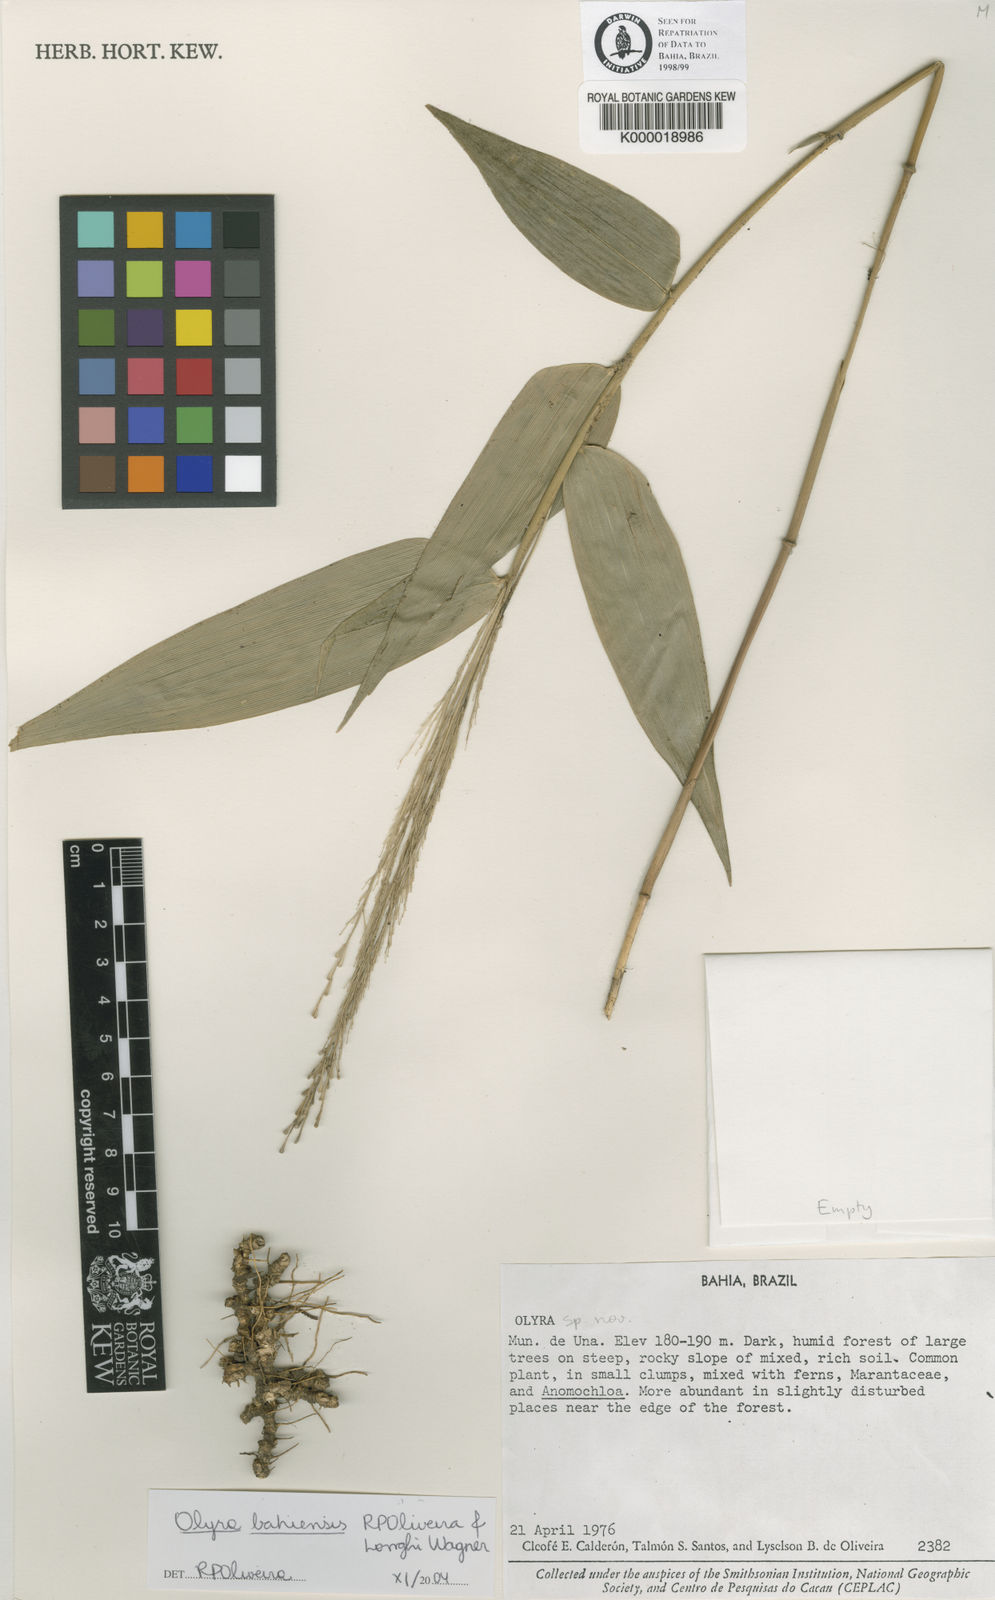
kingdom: Plantae
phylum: Tracheophyta
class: Liliopsida
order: Poales
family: Poaceae
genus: Olyra
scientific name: Olyra bahiensis
